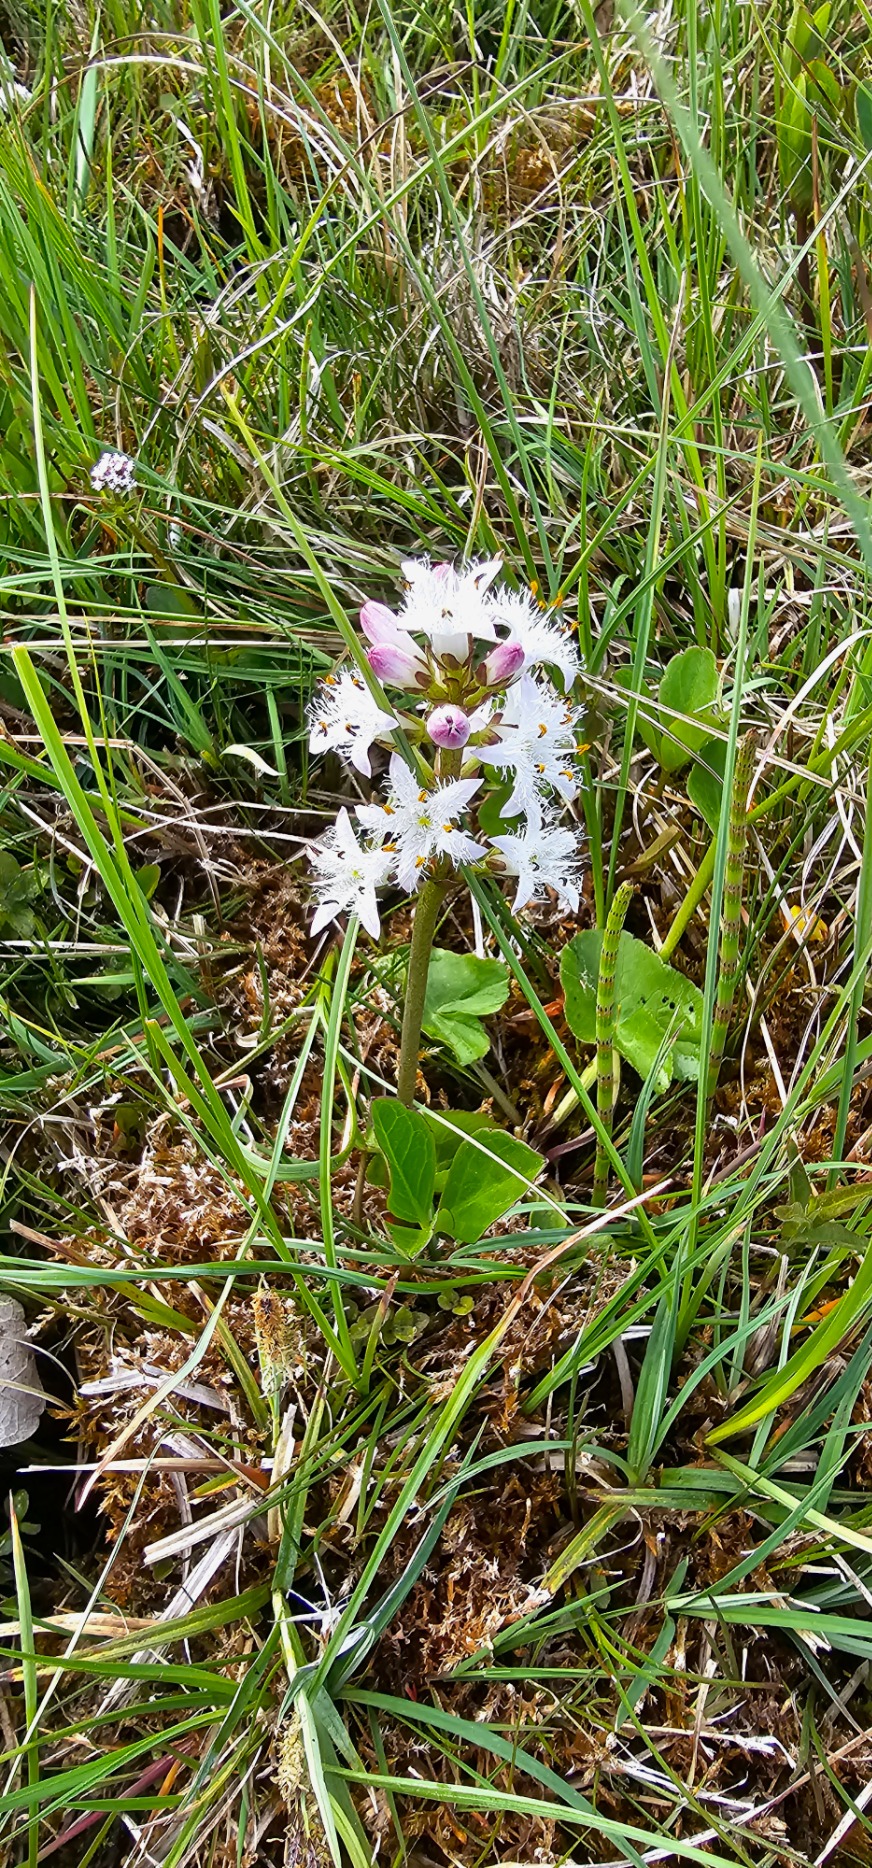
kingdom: Plantae
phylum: Tracheophyta
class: Magnoliopsida
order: Asterales
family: Menyanthaceae
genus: Menyanthes
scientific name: Menyanthes trifoliata
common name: Bukkeblad
